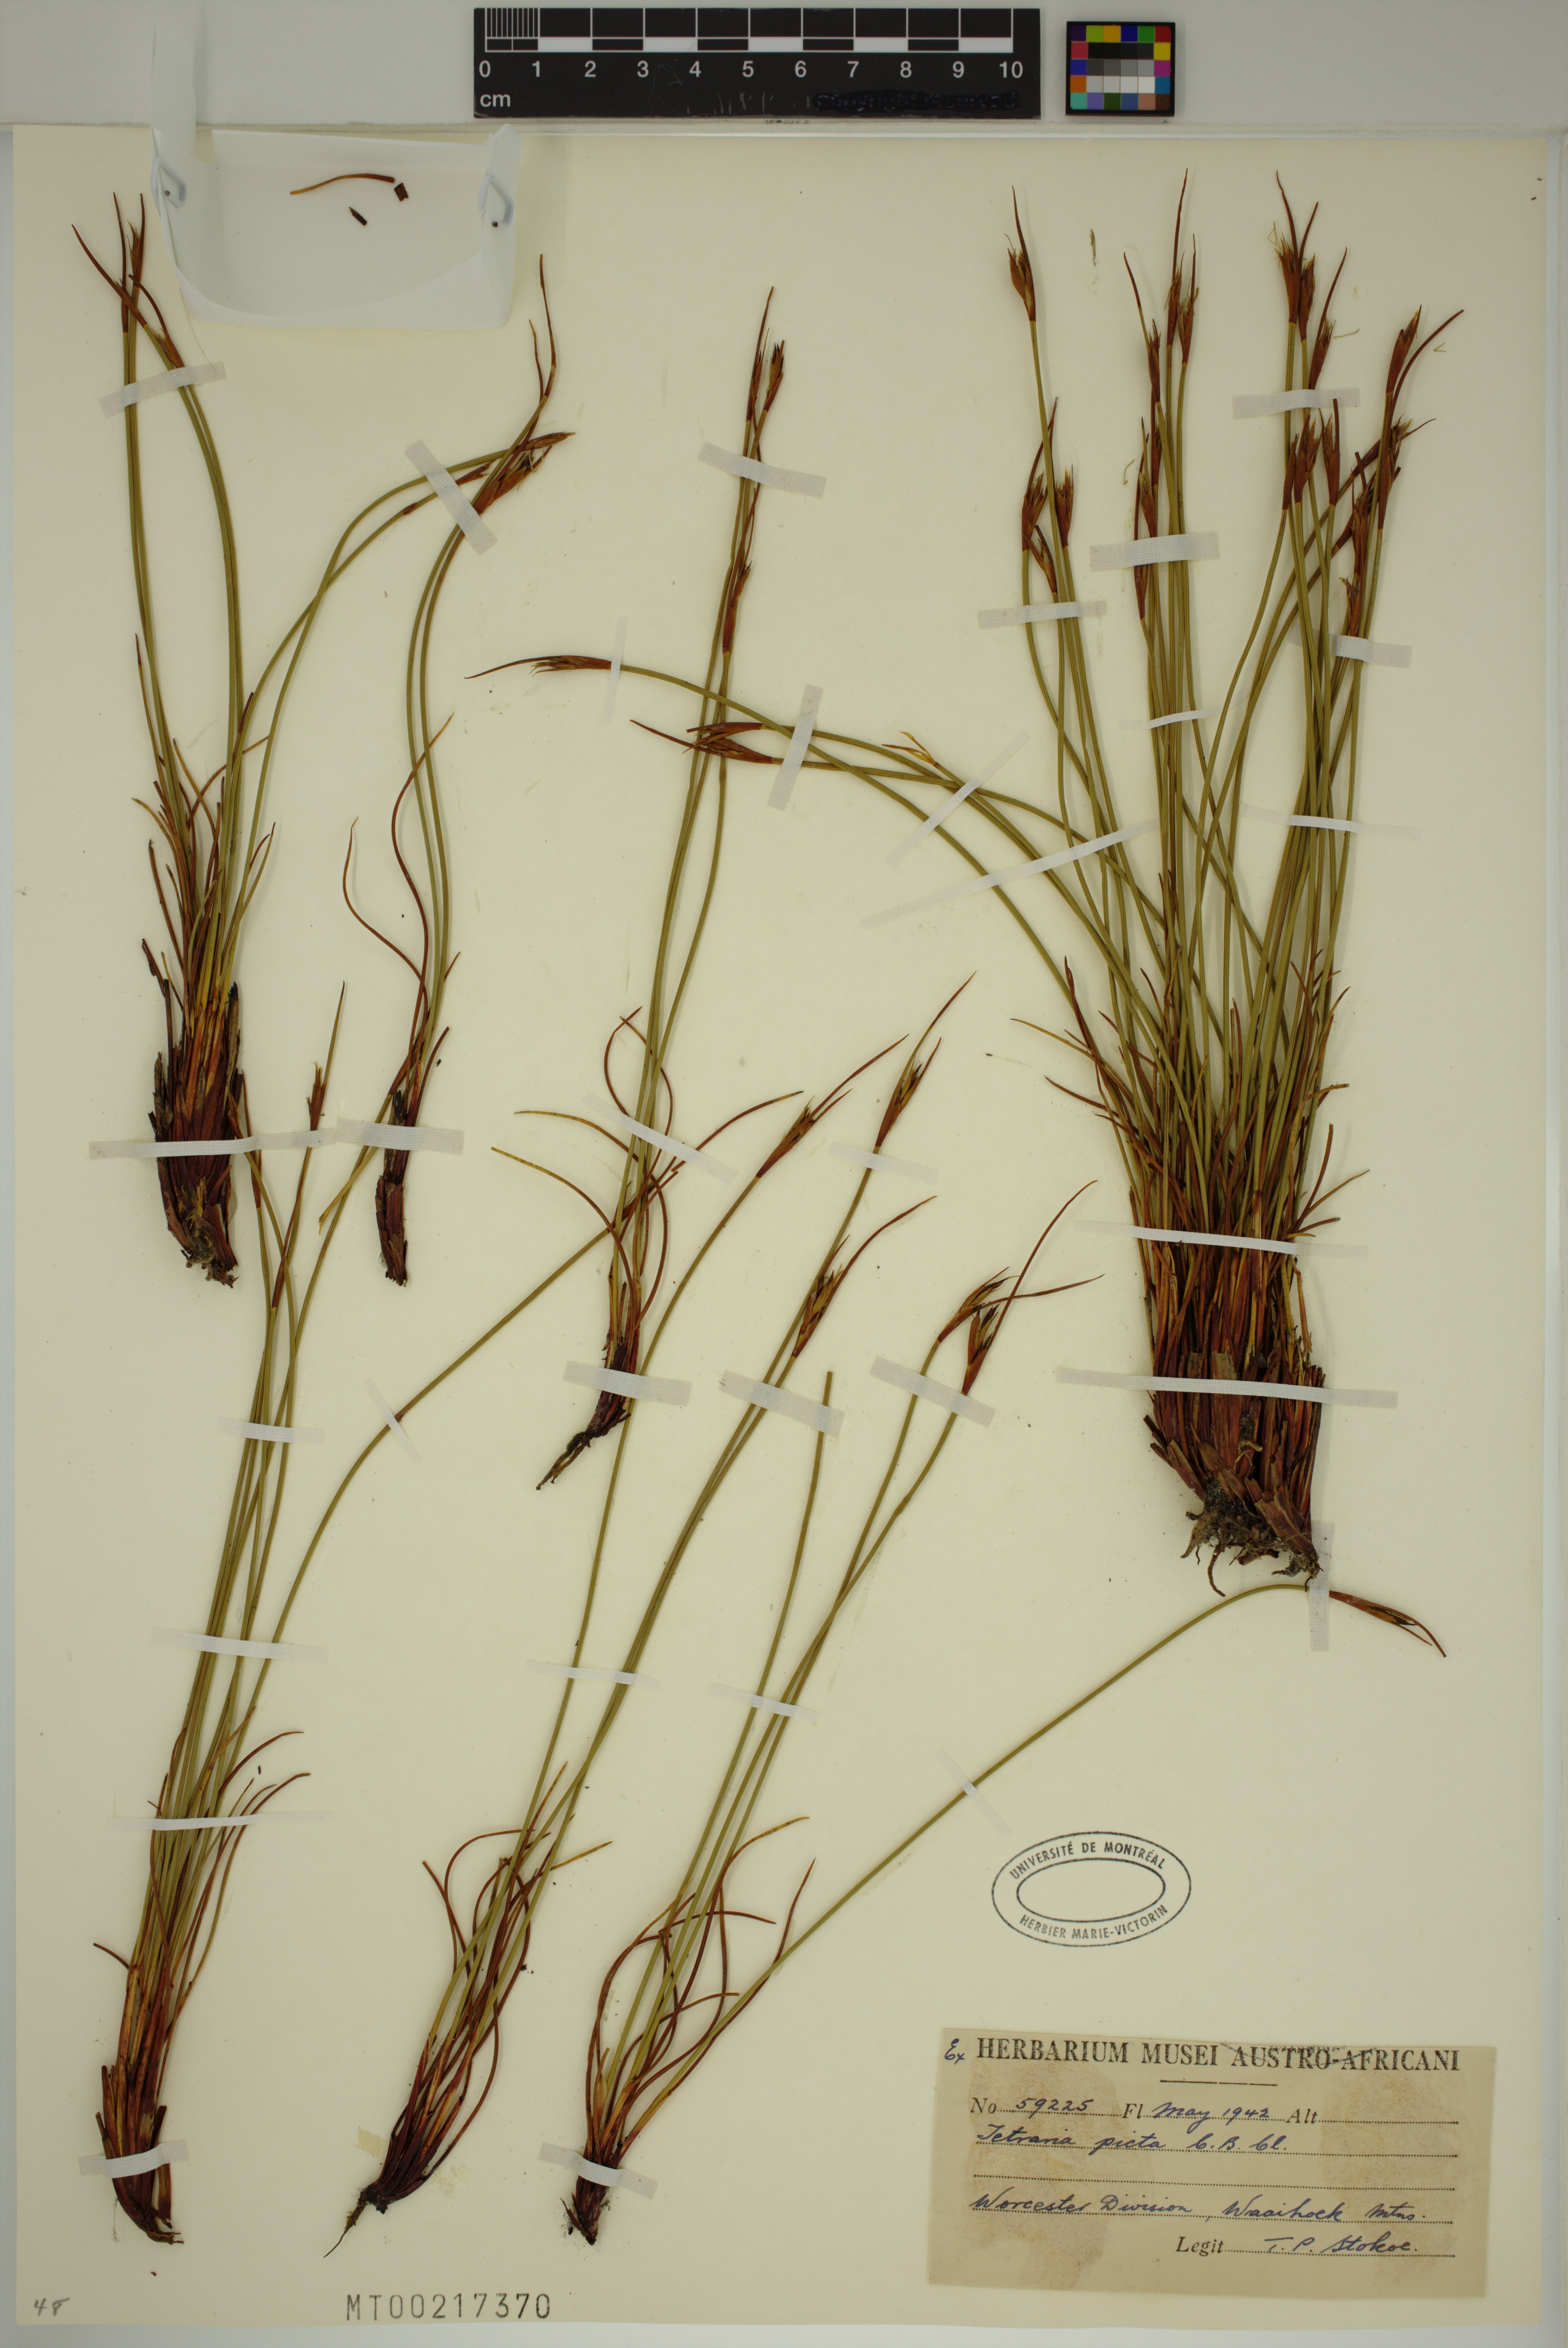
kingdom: Plantae
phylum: Tracheophyta
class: Liliopsida
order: Poales
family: Cyperaceae
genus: Schoenus
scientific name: Schoenus pictus
